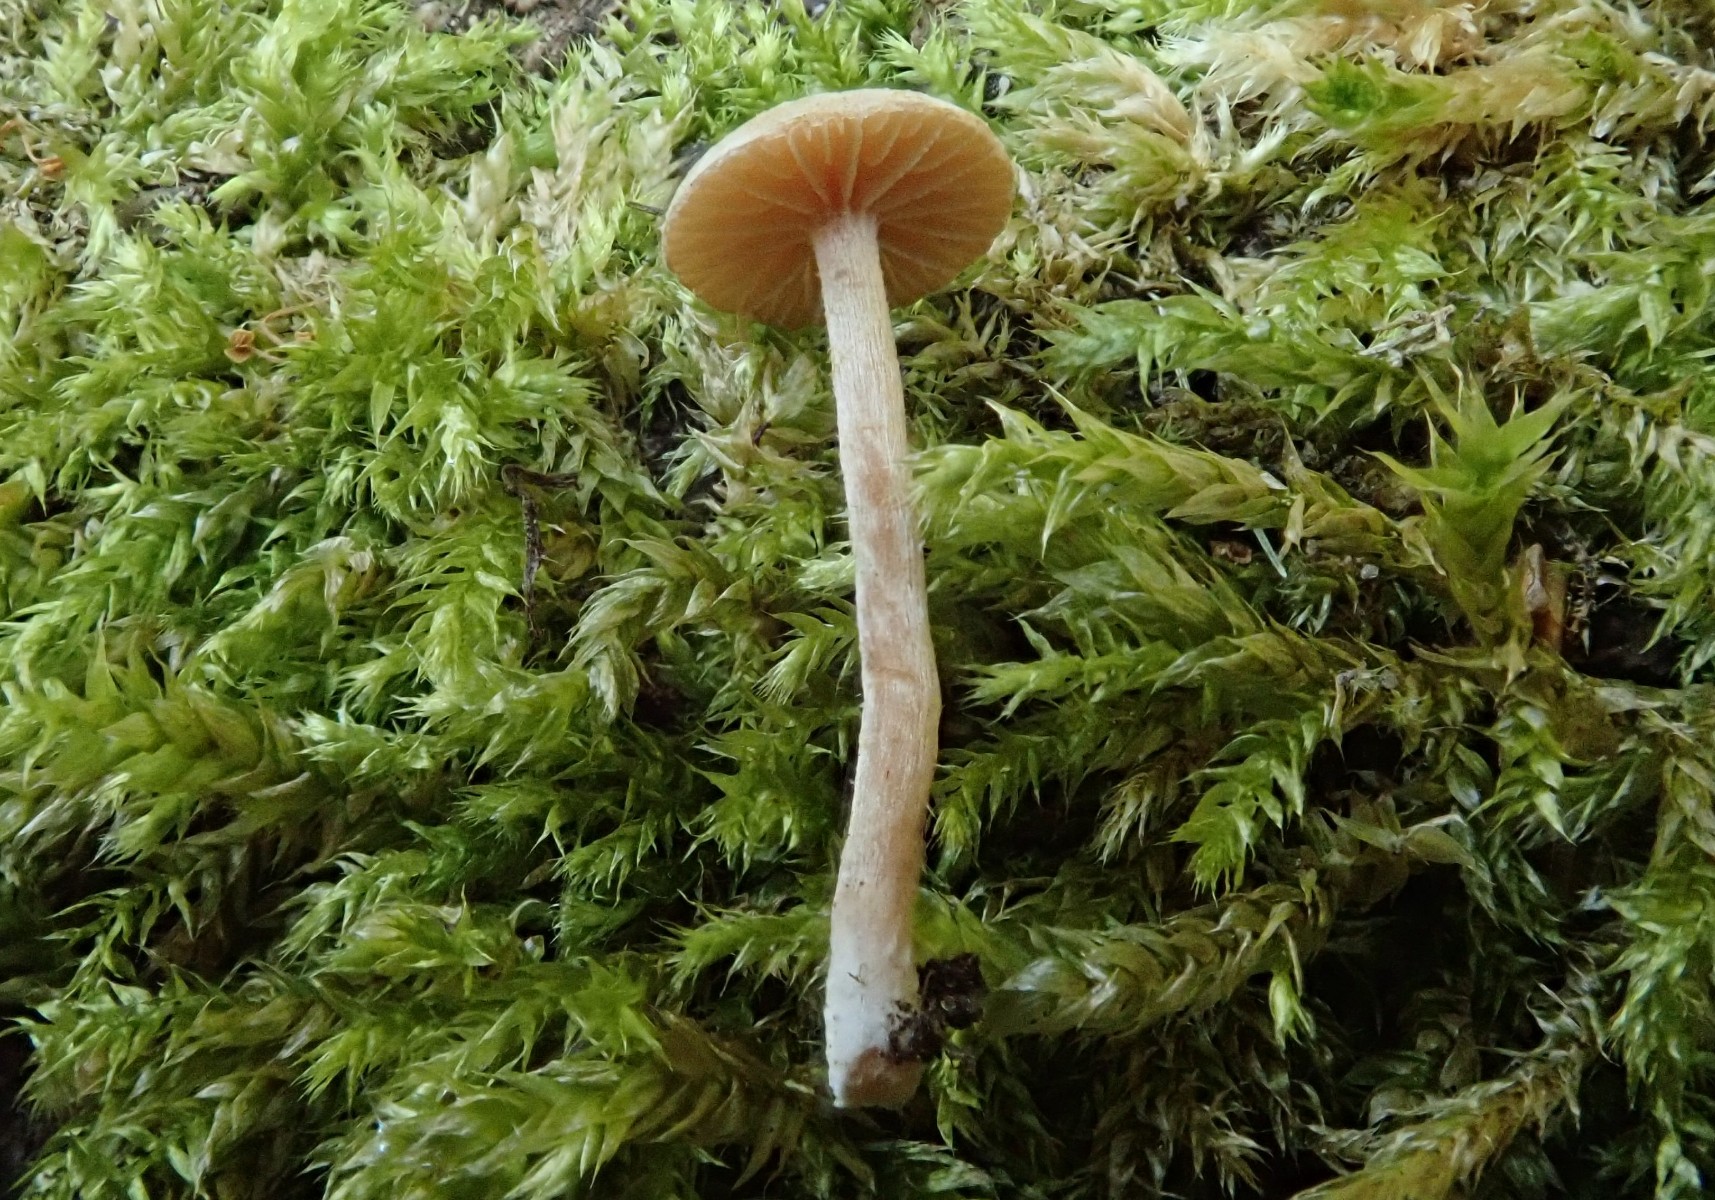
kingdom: Fungi
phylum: Basidiomycota
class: Agaricomycetes
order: Agaricales
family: Tubariaceae
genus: Tubaria
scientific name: Tubaria conspersa
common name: bleg fnughat
